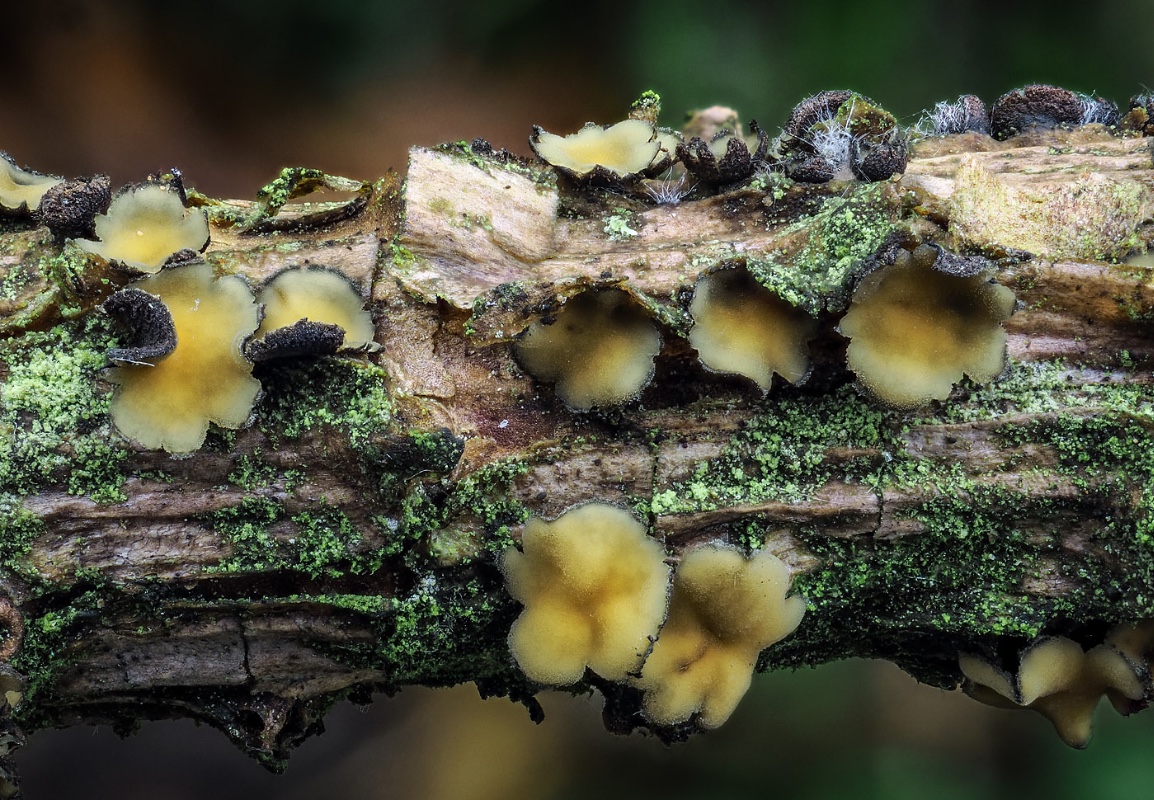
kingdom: Fungi
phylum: Ascomycota
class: Leotiomycetes
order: Helotiales
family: Cenangiaceae
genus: Cenangium
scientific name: Cenangium ferruginosum
